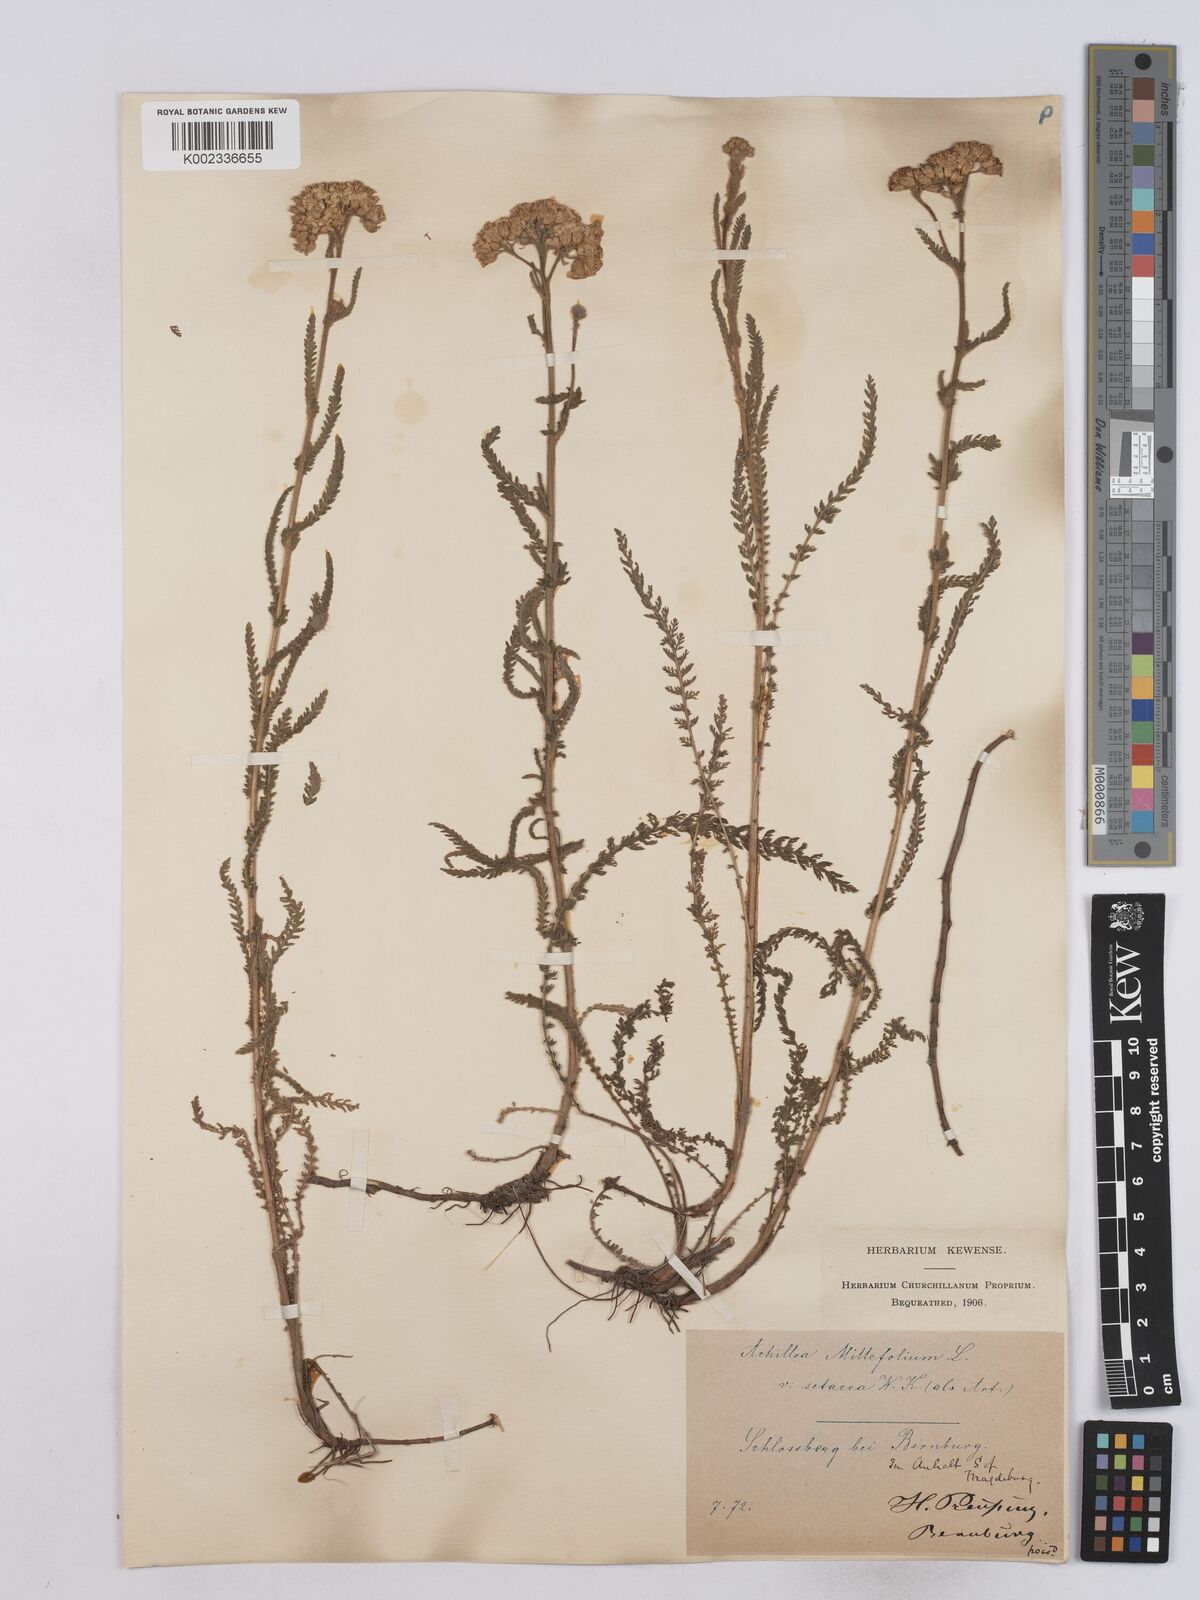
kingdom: Plantae
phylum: Tracheophyta
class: Magnoliopsida
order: Asterales
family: Asteraceae
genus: Achillea
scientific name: Achillea setacea
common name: Bristly yarrow
